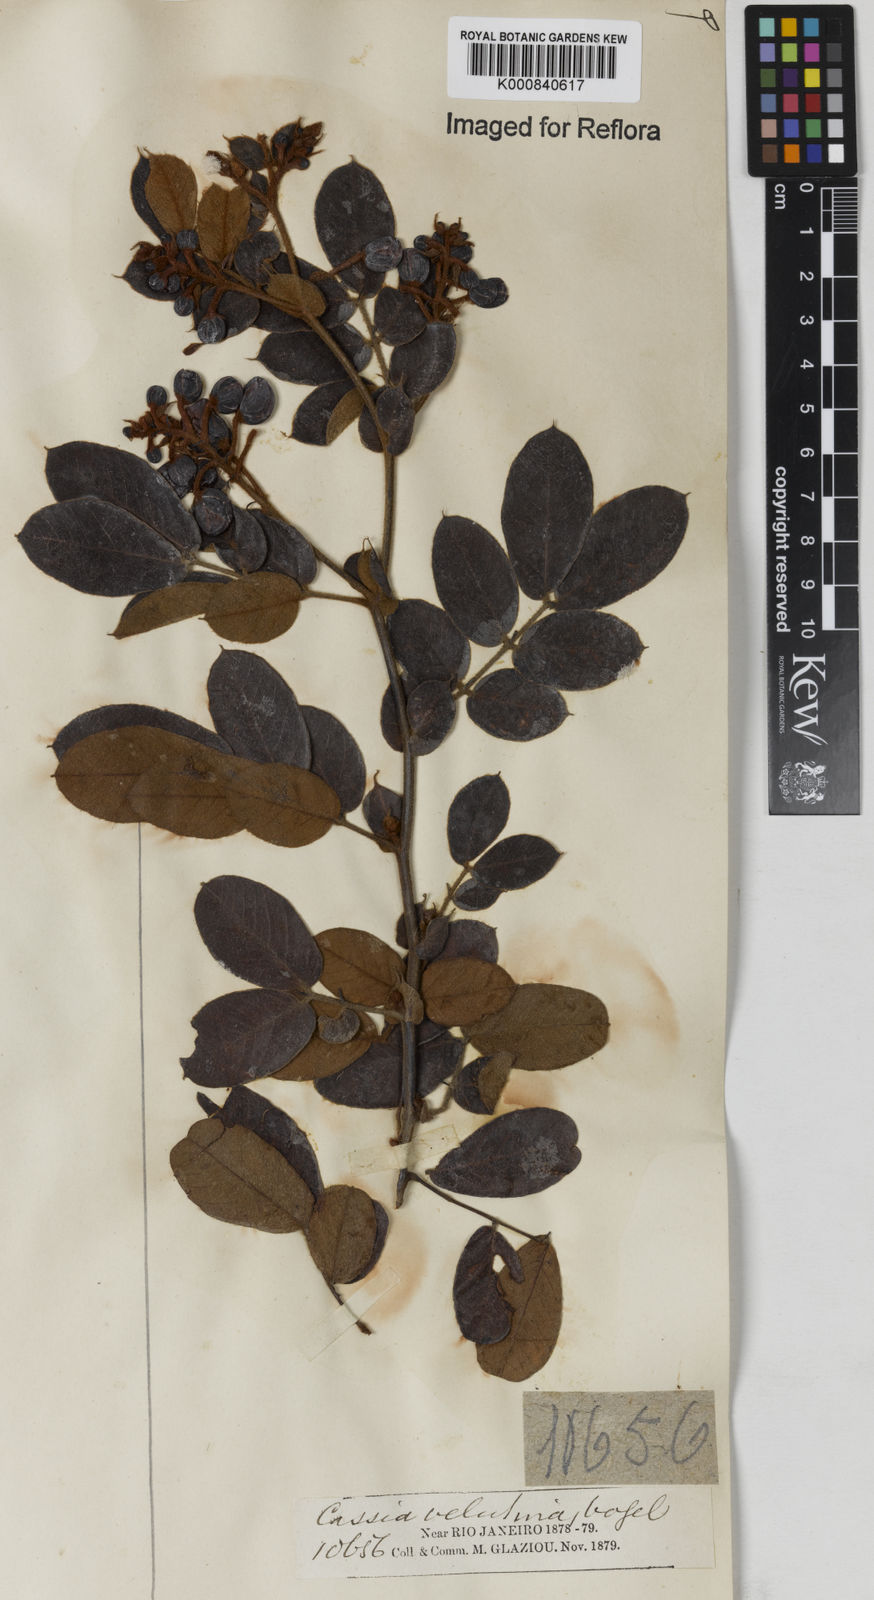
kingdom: Plantae
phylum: Tracheophyta
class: Magnoliopsida
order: Fabales
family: Fabaceae
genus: Senna
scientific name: Senna velutina
